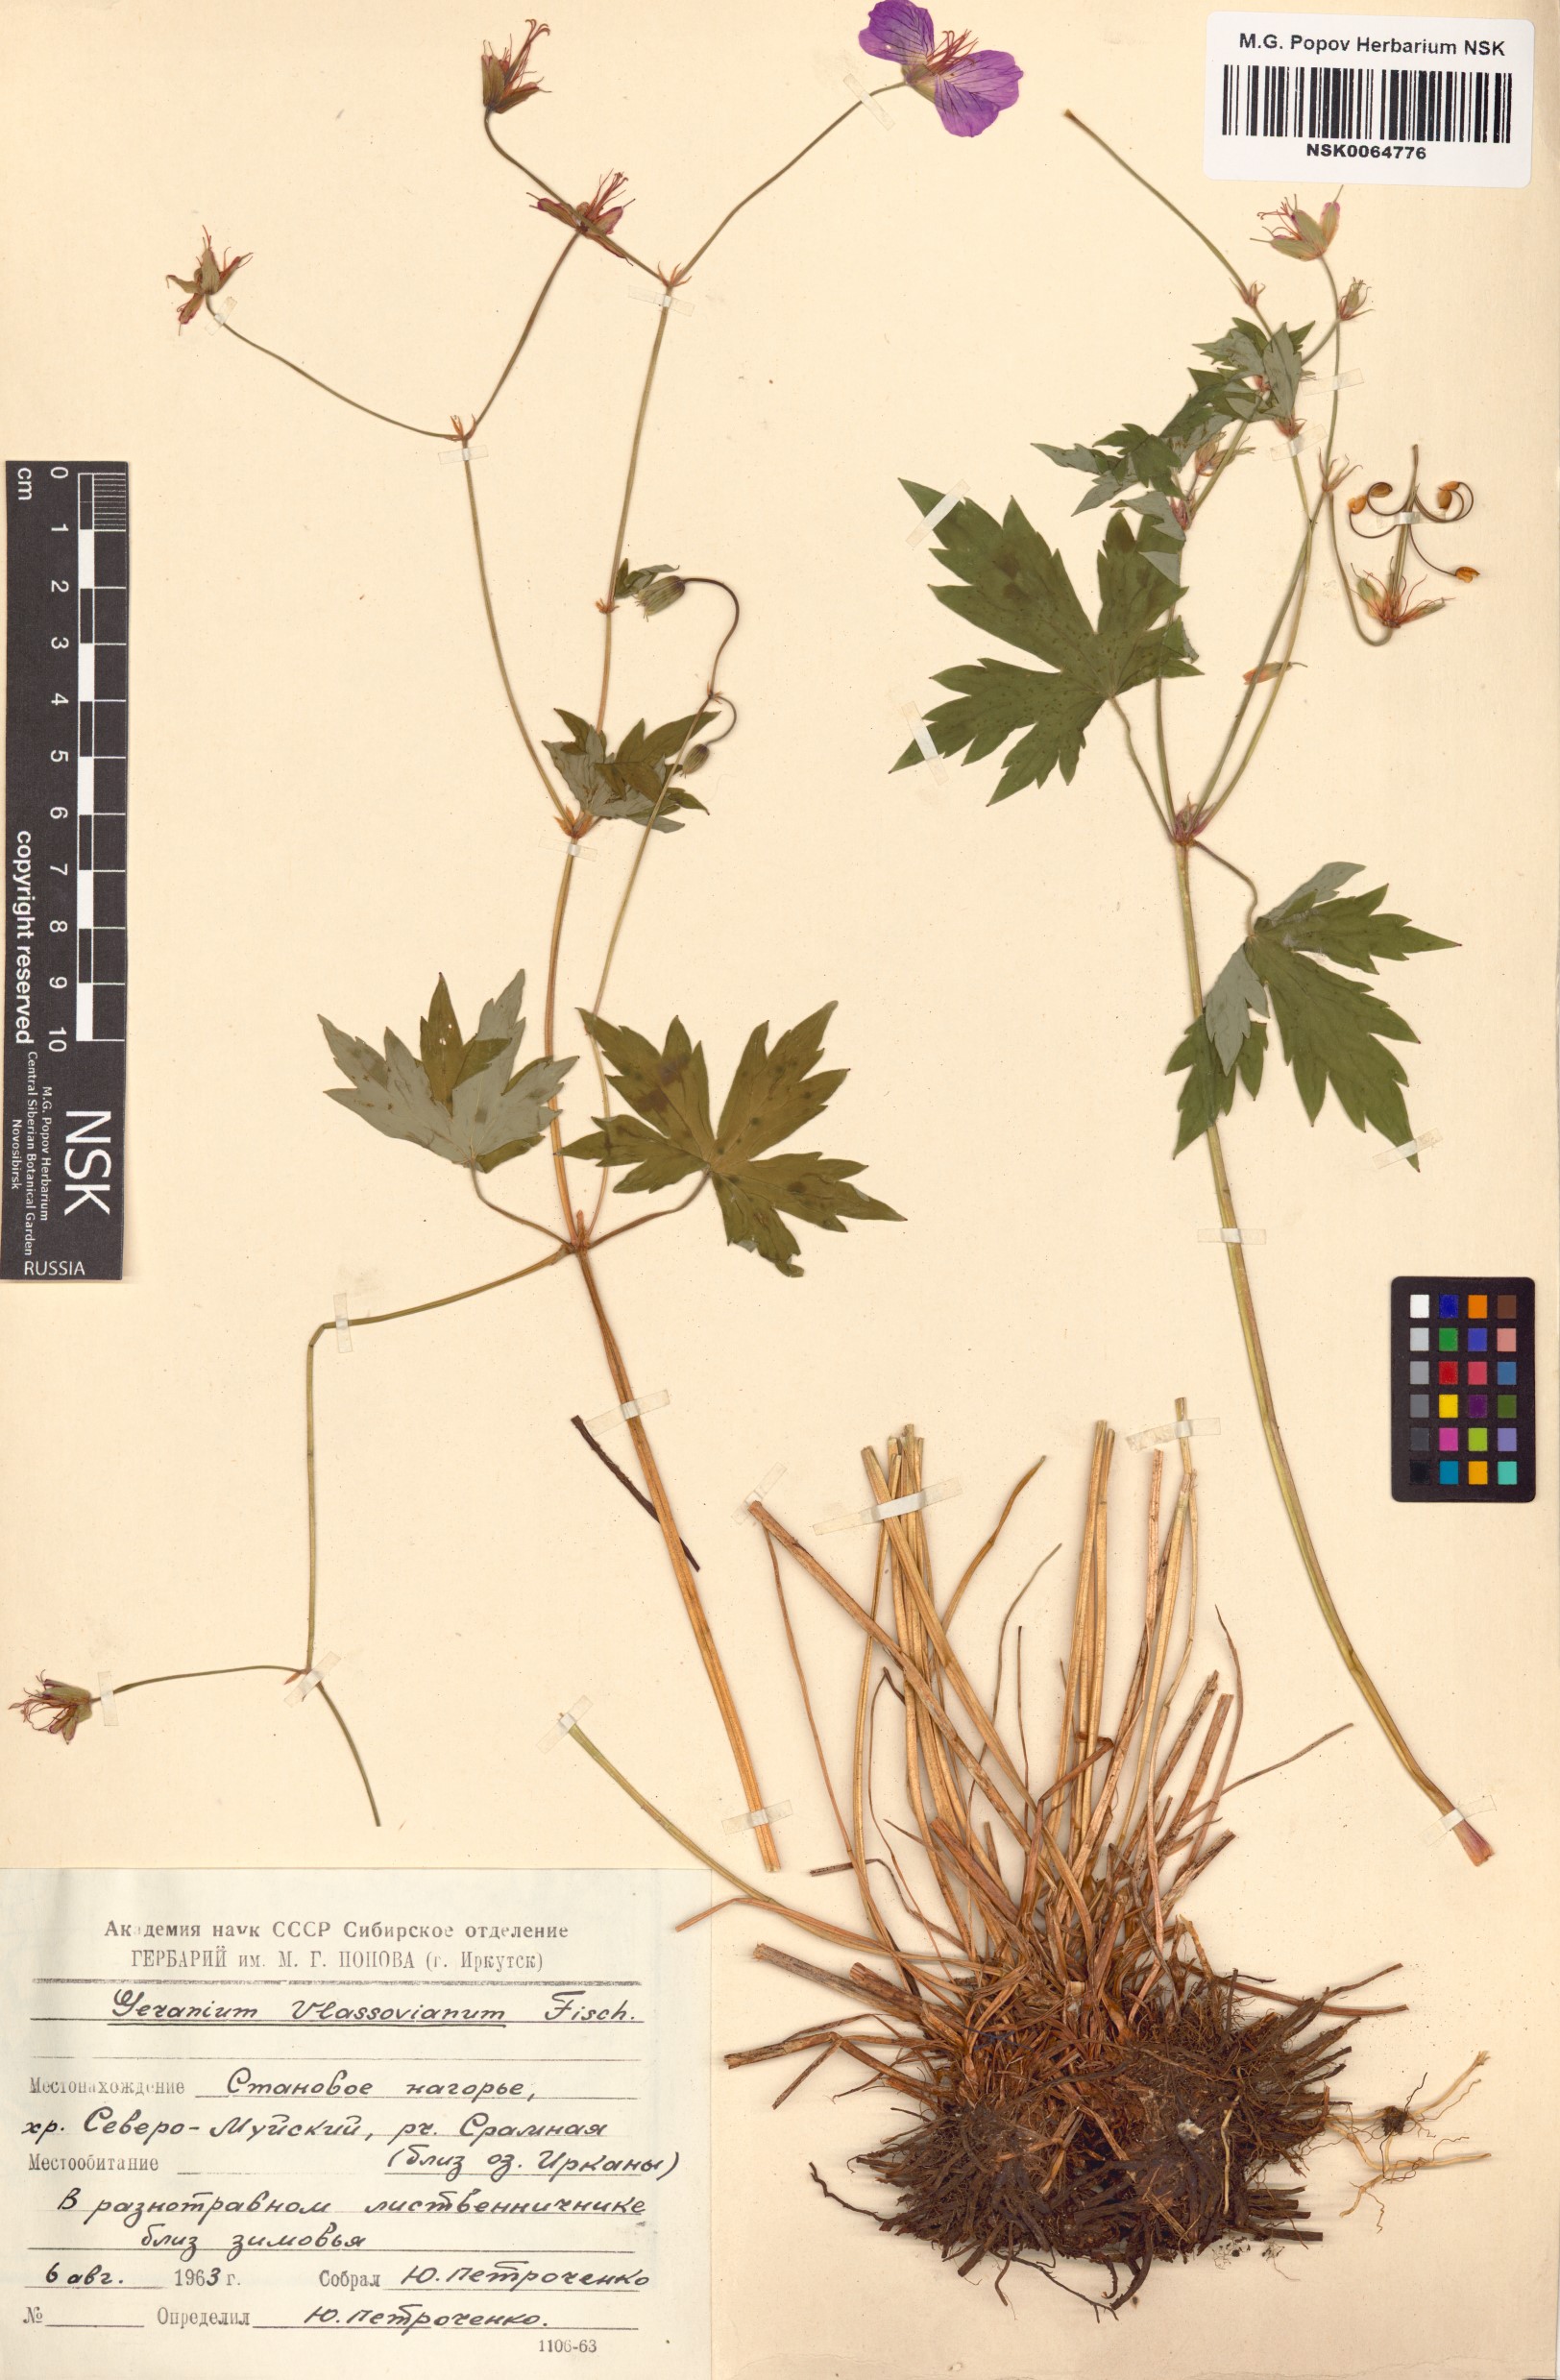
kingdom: Plantae
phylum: Tracheophyta
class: Magnoliopsida
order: Geraniales
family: Geraniaceae
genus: Geranium
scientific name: Geranium wlassovianum
